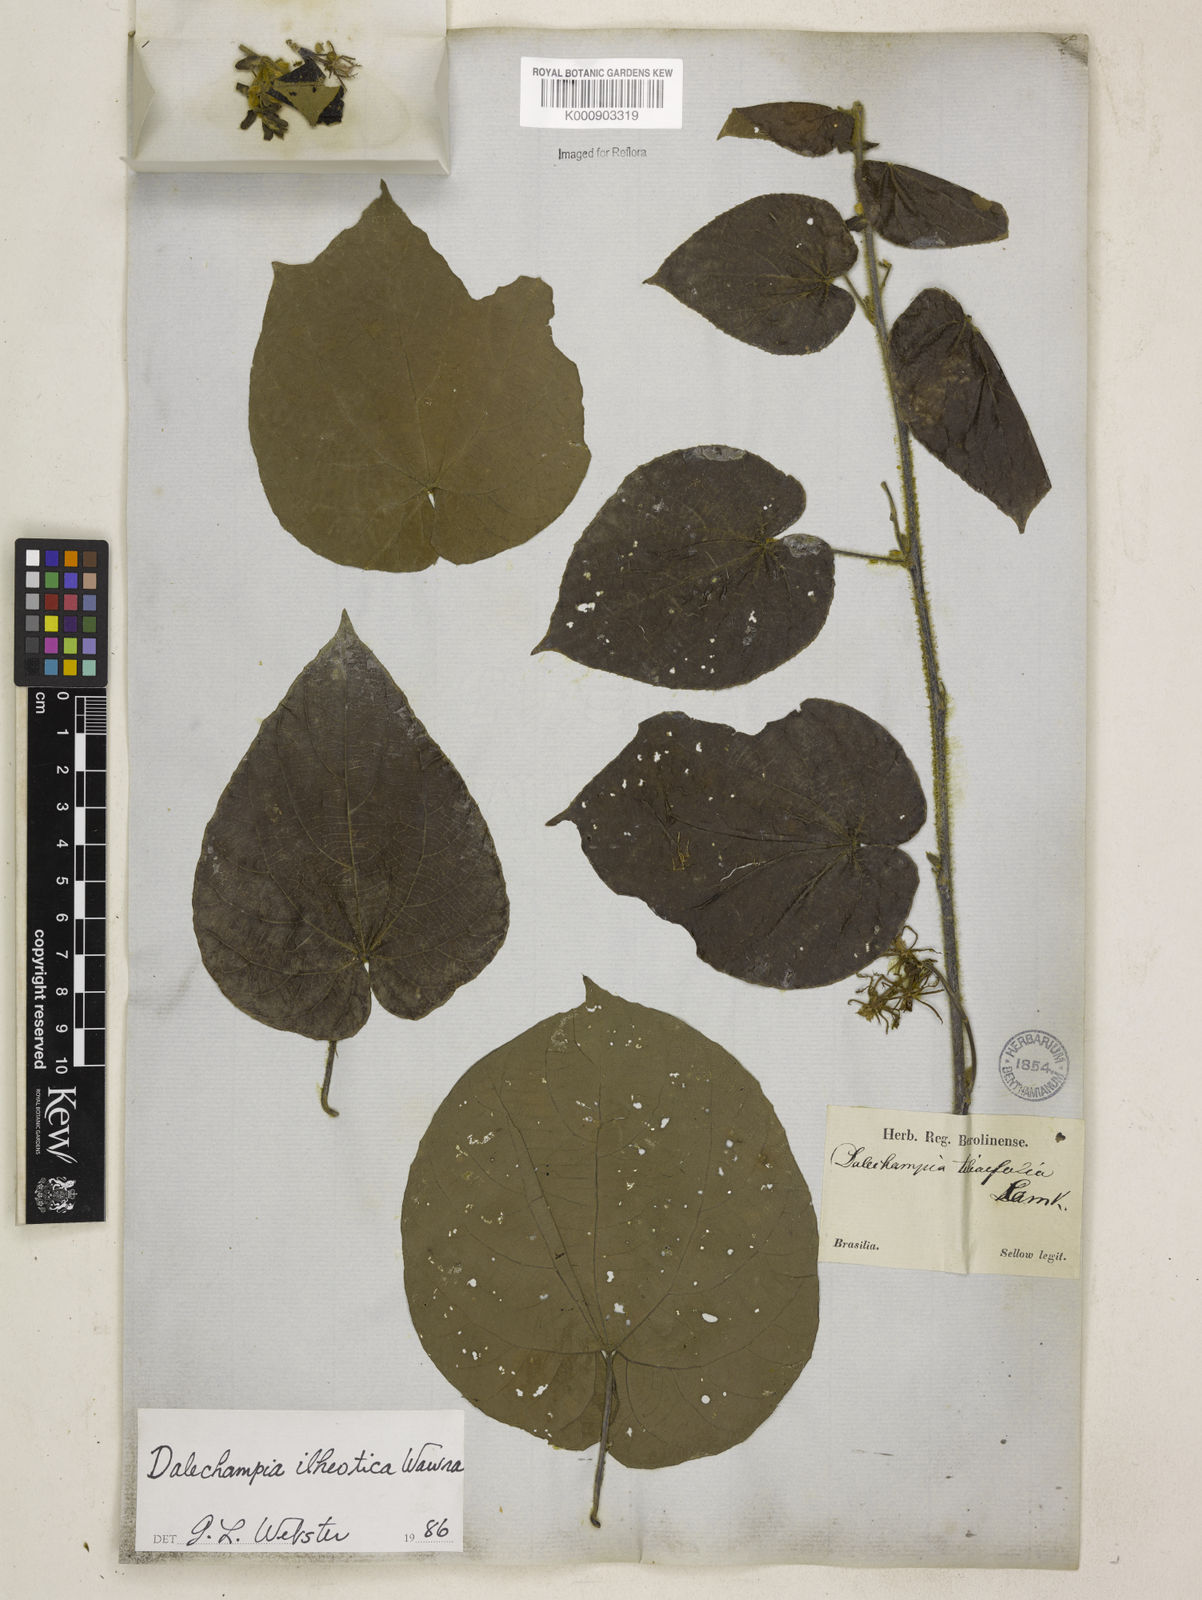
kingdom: Plantae
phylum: Tracheophyta
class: Magnoliopsida
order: Malpighiales
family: Euphorbiaceae
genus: Dalechampia
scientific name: Dalechampia ilheotica
